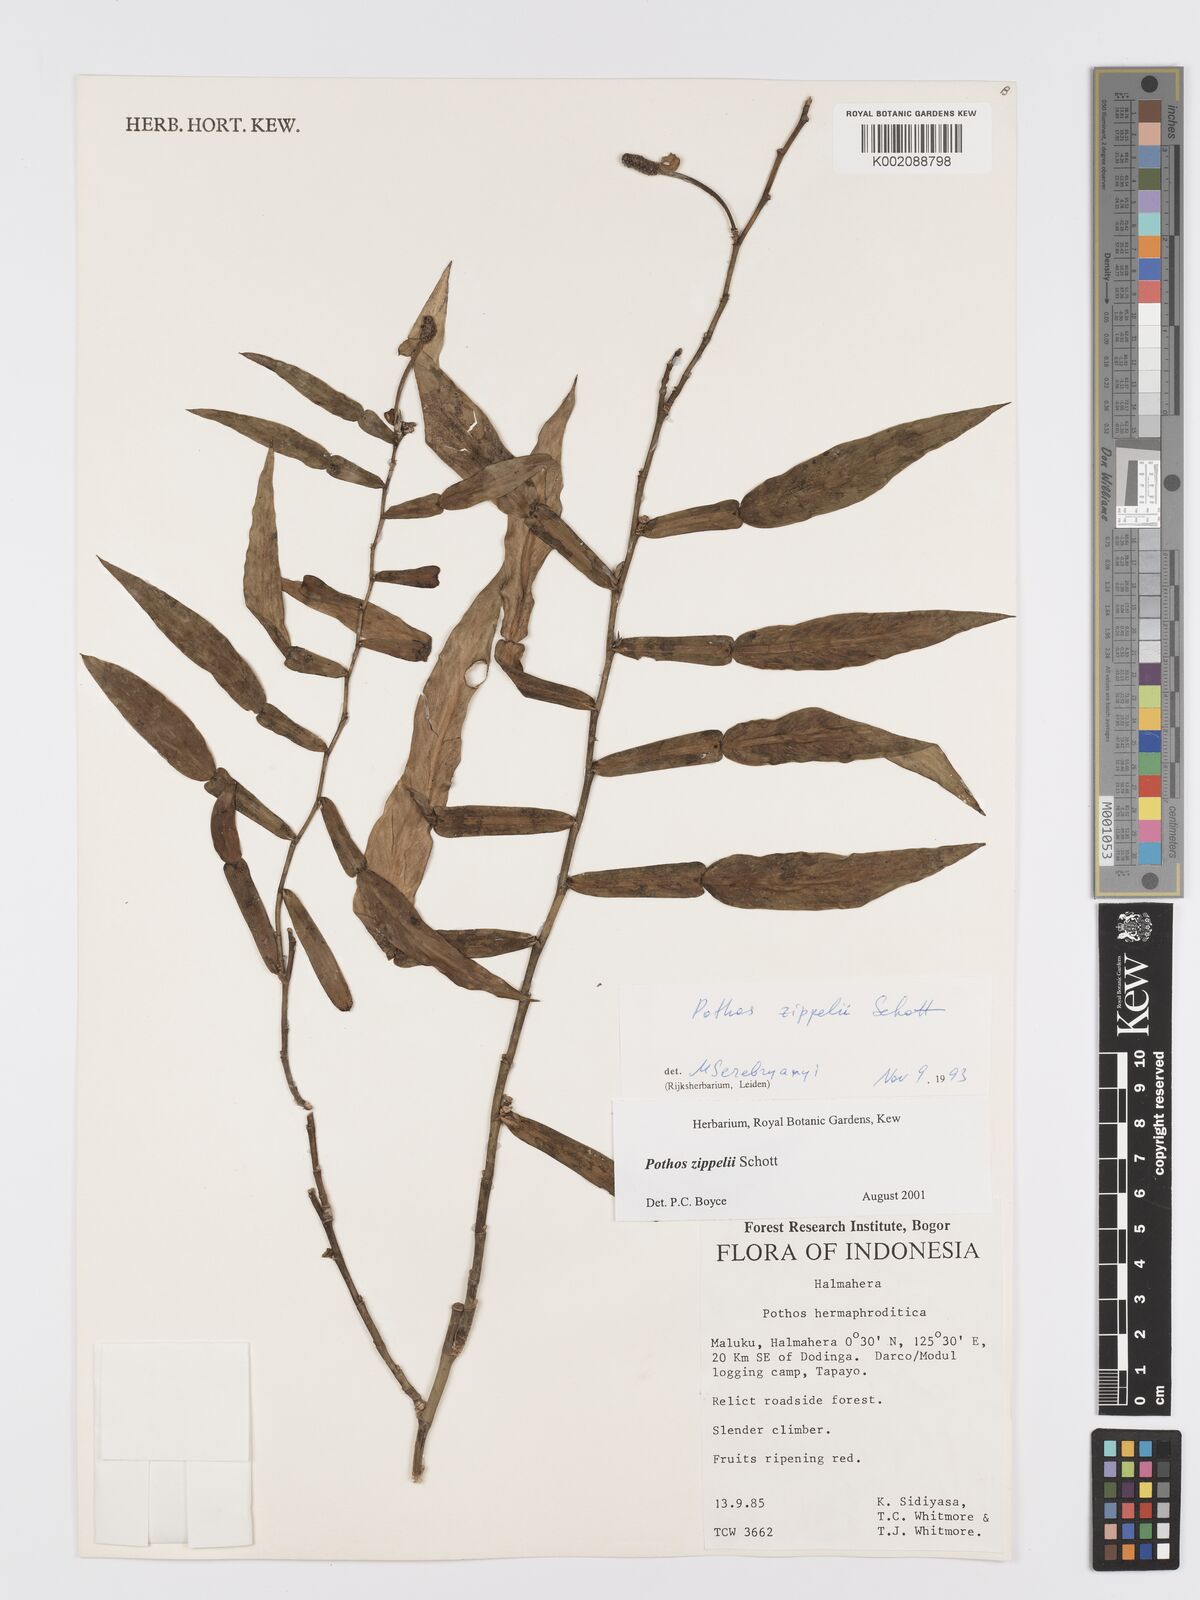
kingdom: Plantae
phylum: Tracheophyta
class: Liliopsida
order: Alismatales
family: Araceae
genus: Pothos
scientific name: Pothos zippelii
